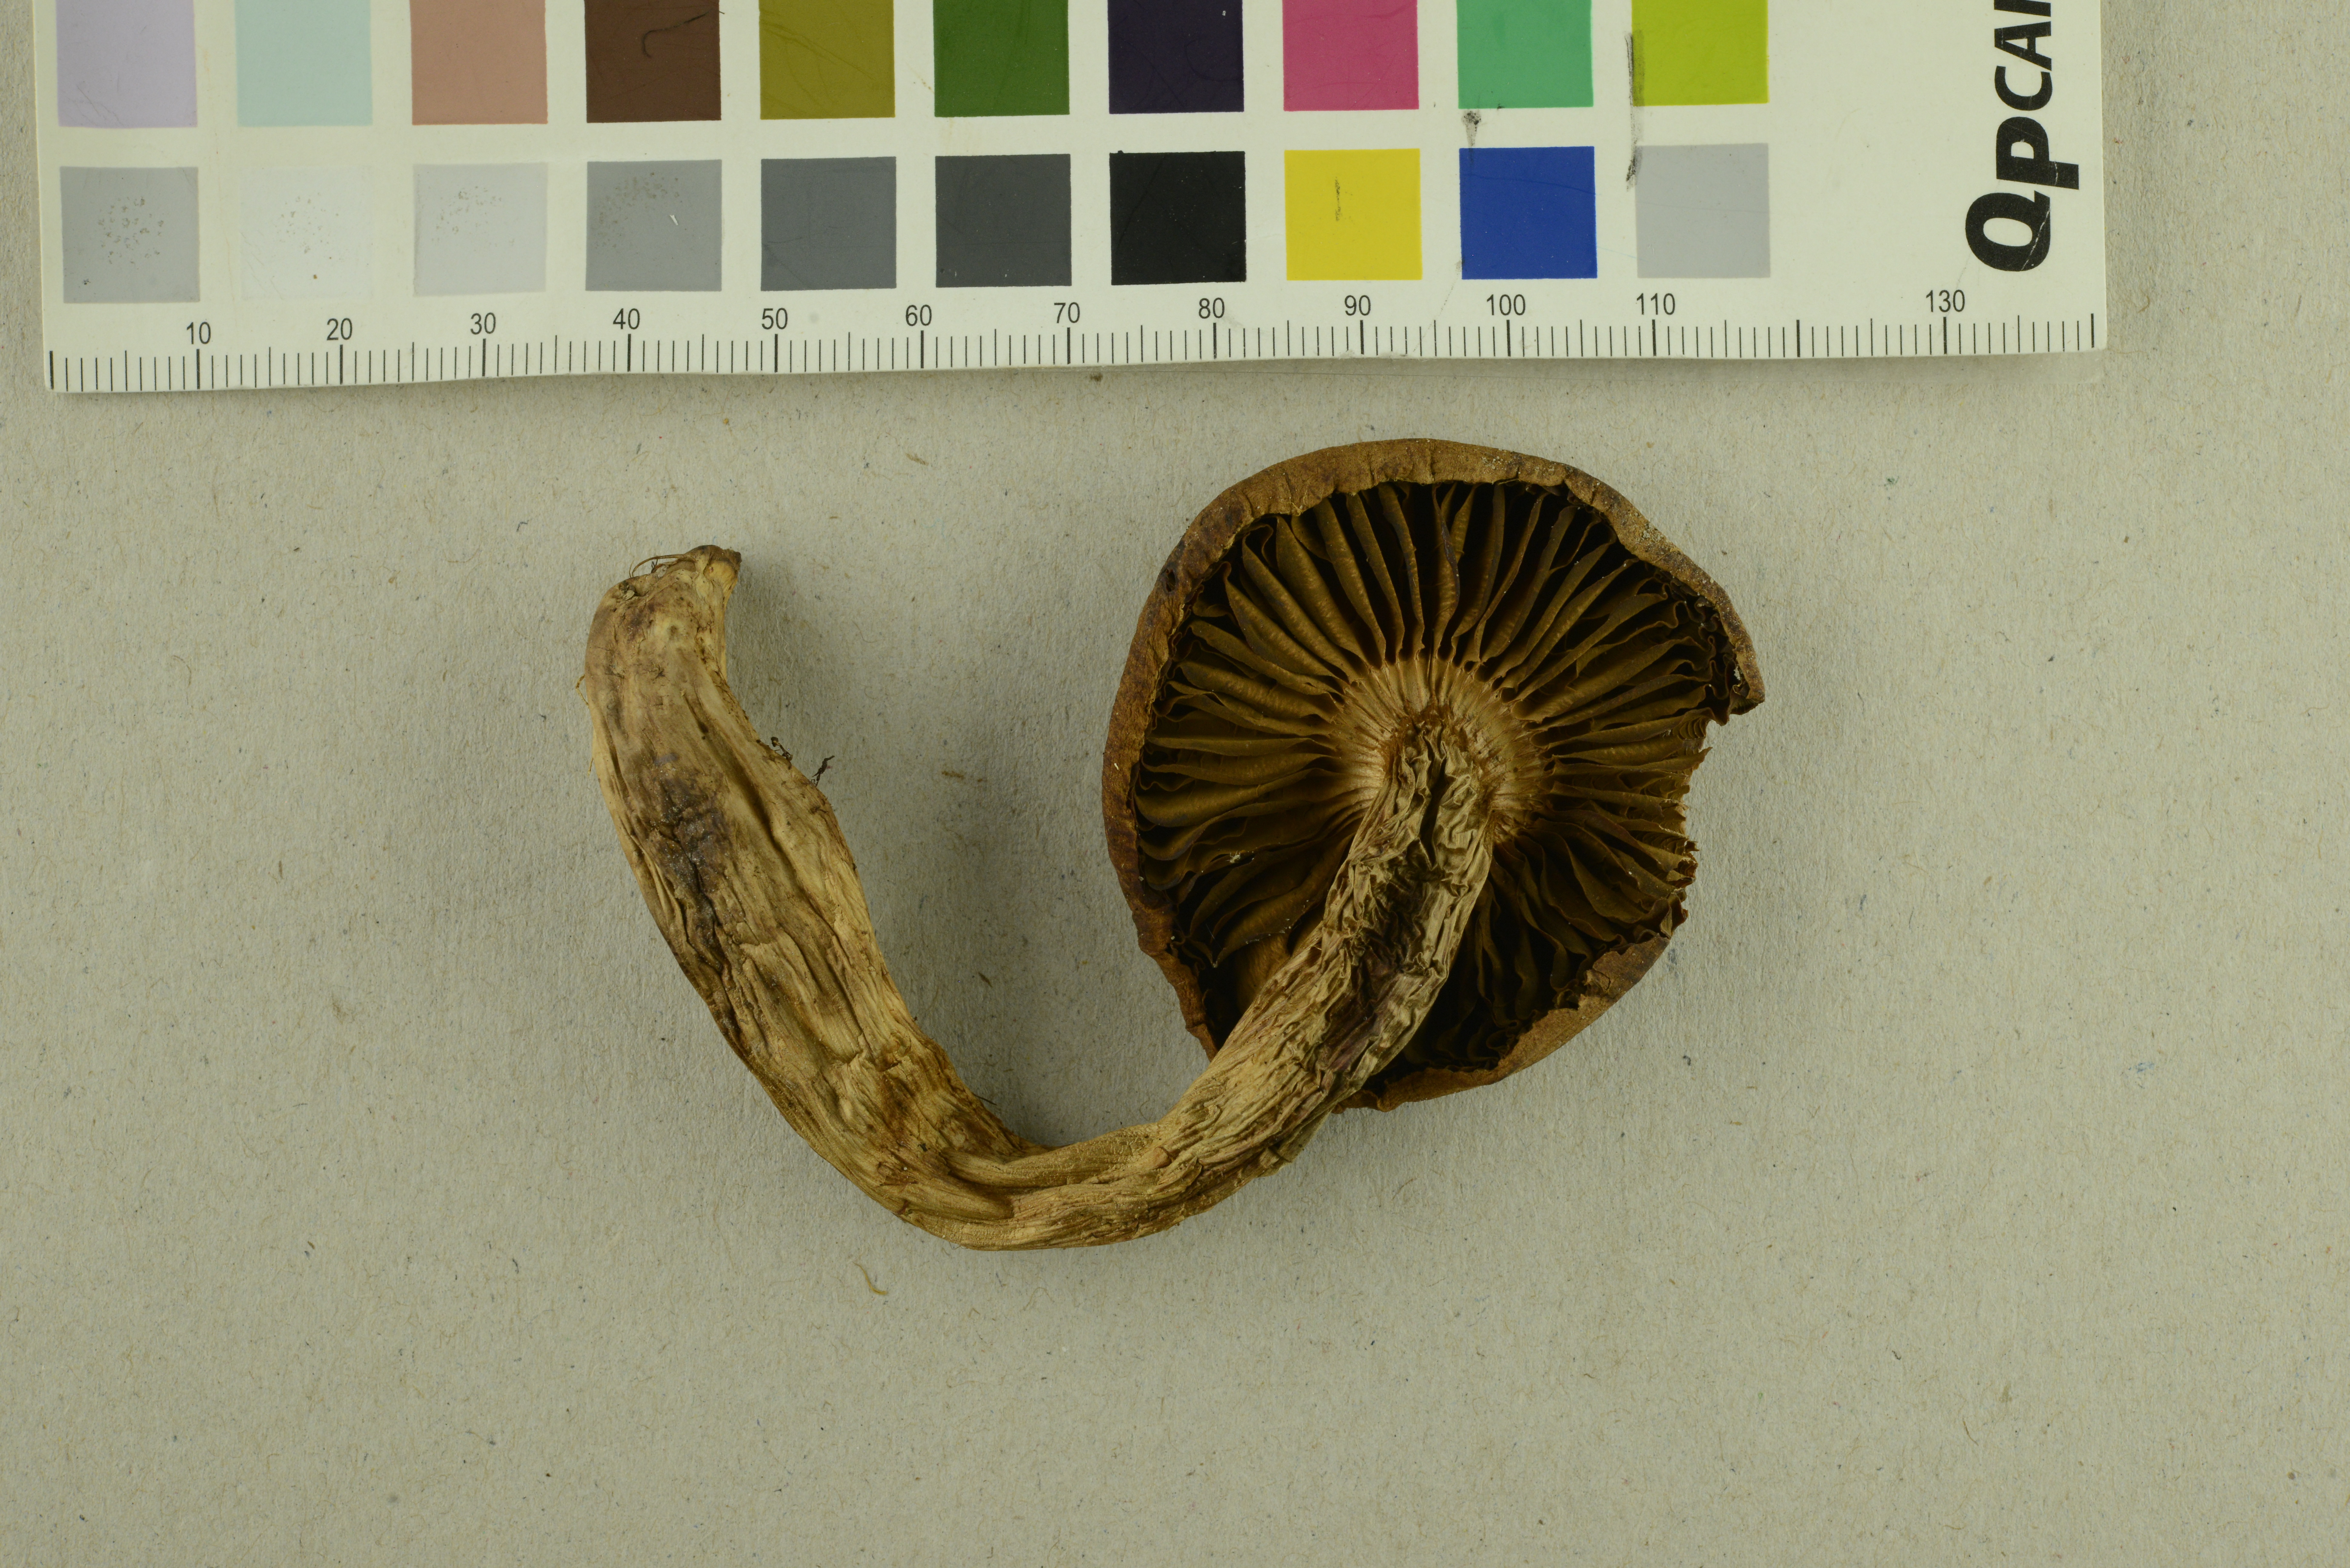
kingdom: Fungi
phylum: Basidiomycota
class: Agaricomycetes
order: Agaricales
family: Cortinariaceae
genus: Cortinarius
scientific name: Cortinarius rubellus
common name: Deadly webcap
